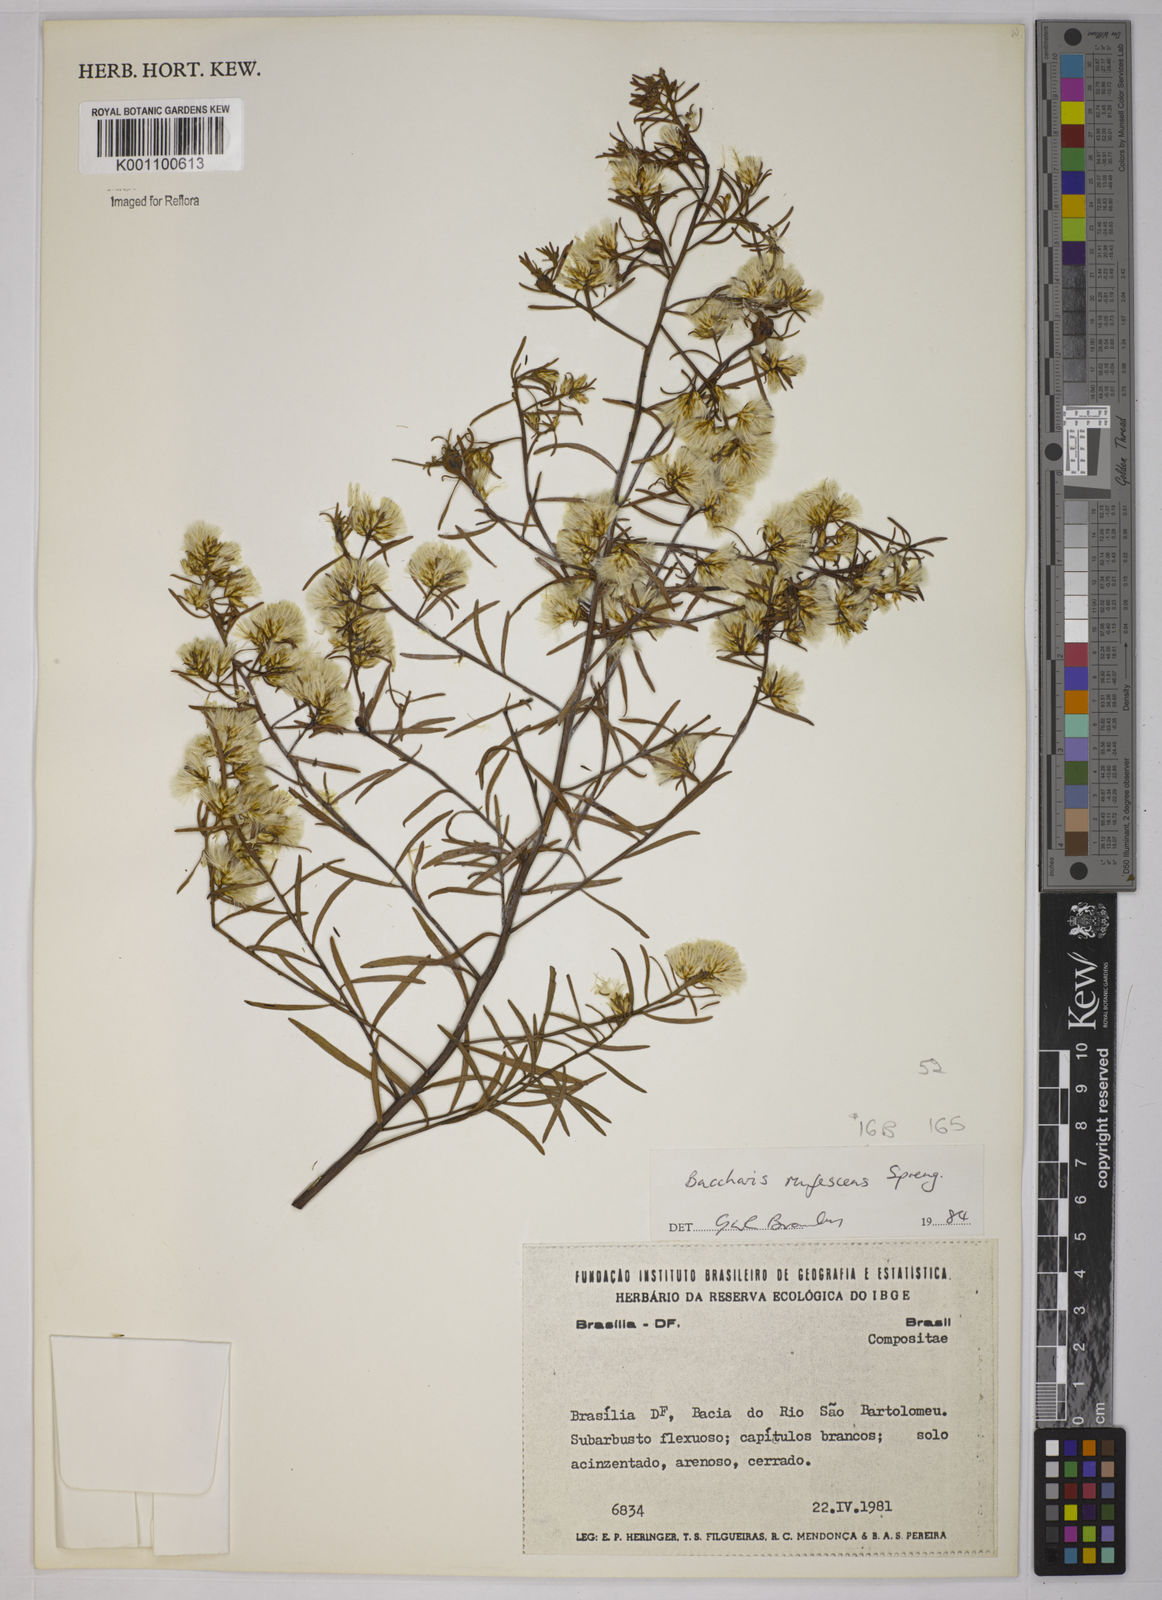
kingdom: Plantae
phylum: Tracheophyta
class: Magnoliopsida
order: Asterales
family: Asteraceae
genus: Baccharis
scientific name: Baccharis rufescens
